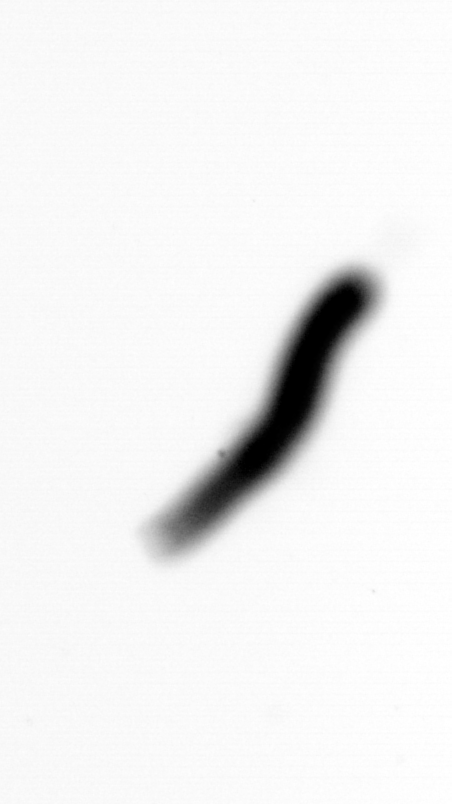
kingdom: Animalia
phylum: Annelida
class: Polychaeta
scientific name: Polychaeta
